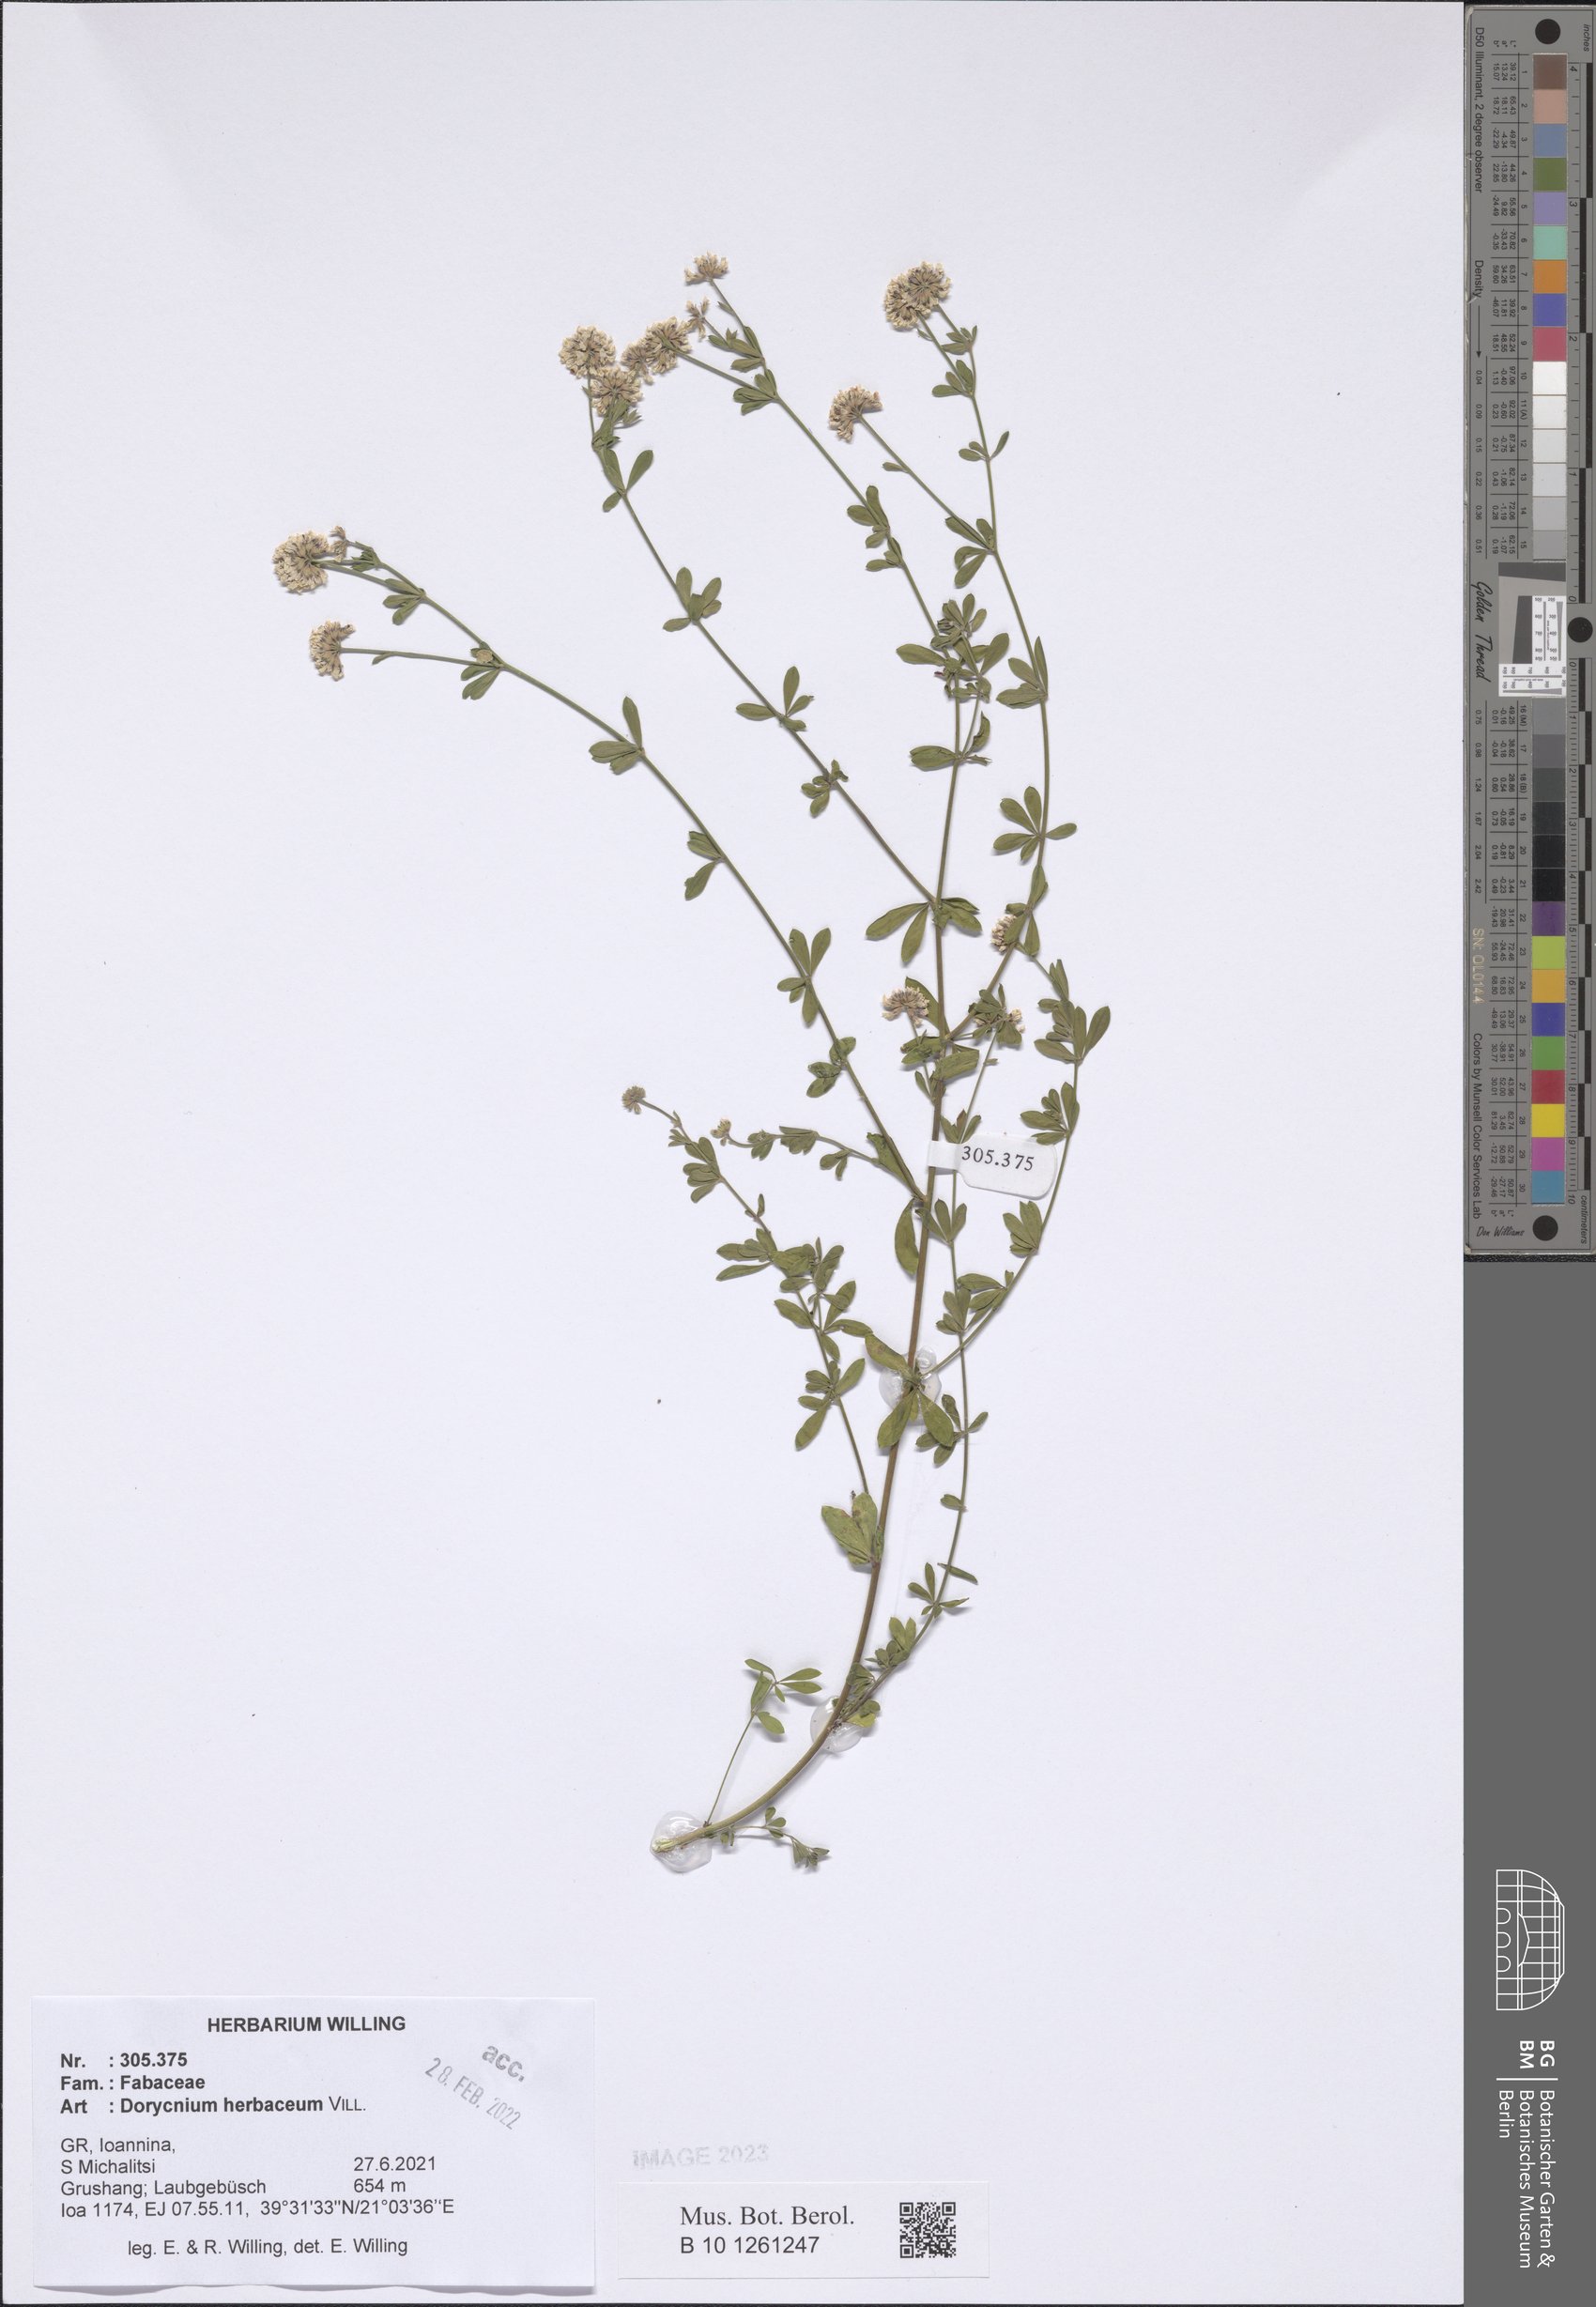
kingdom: Plantae
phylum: Tracheophyta
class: Magnoliopsida
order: Fabales
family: Fabaceae
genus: Lotus
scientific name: Lotus herbaceus
